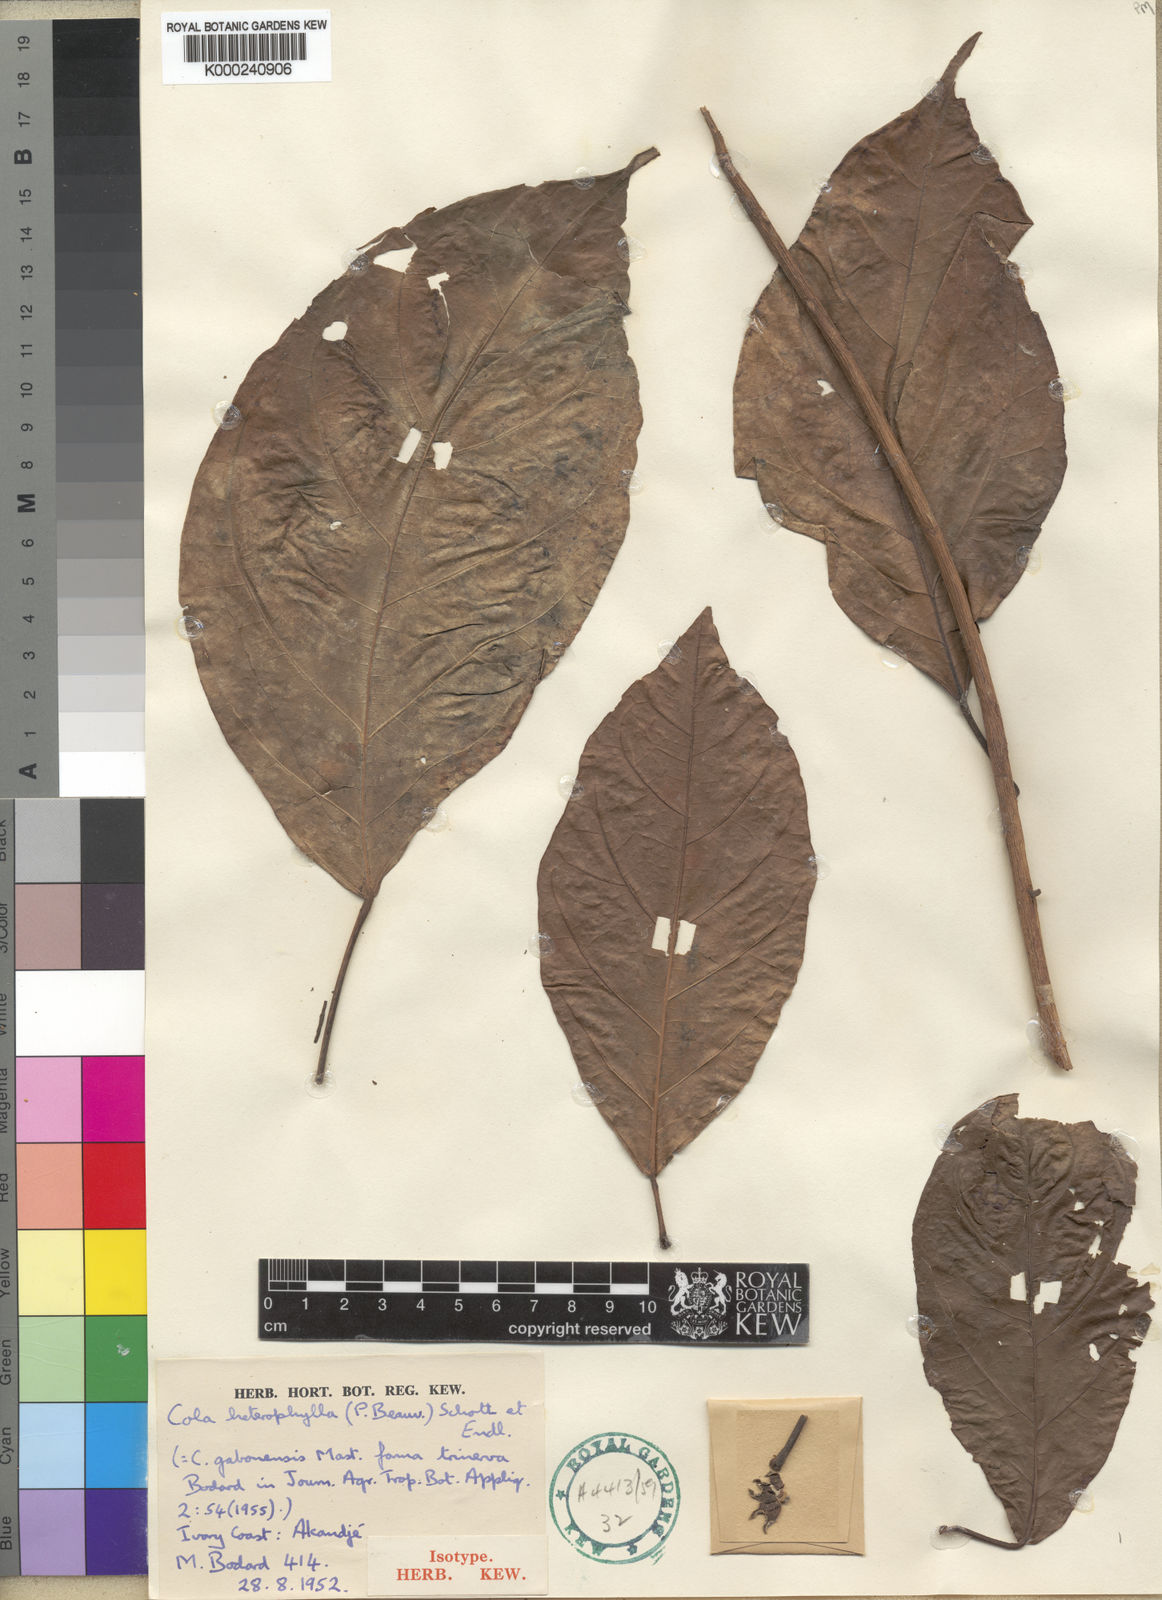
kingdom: Plantae
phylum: Tracheophyta
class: Magnoliopsida
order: Malvales
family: Malvaceae
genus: Cola
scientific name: Cola heterophylla
